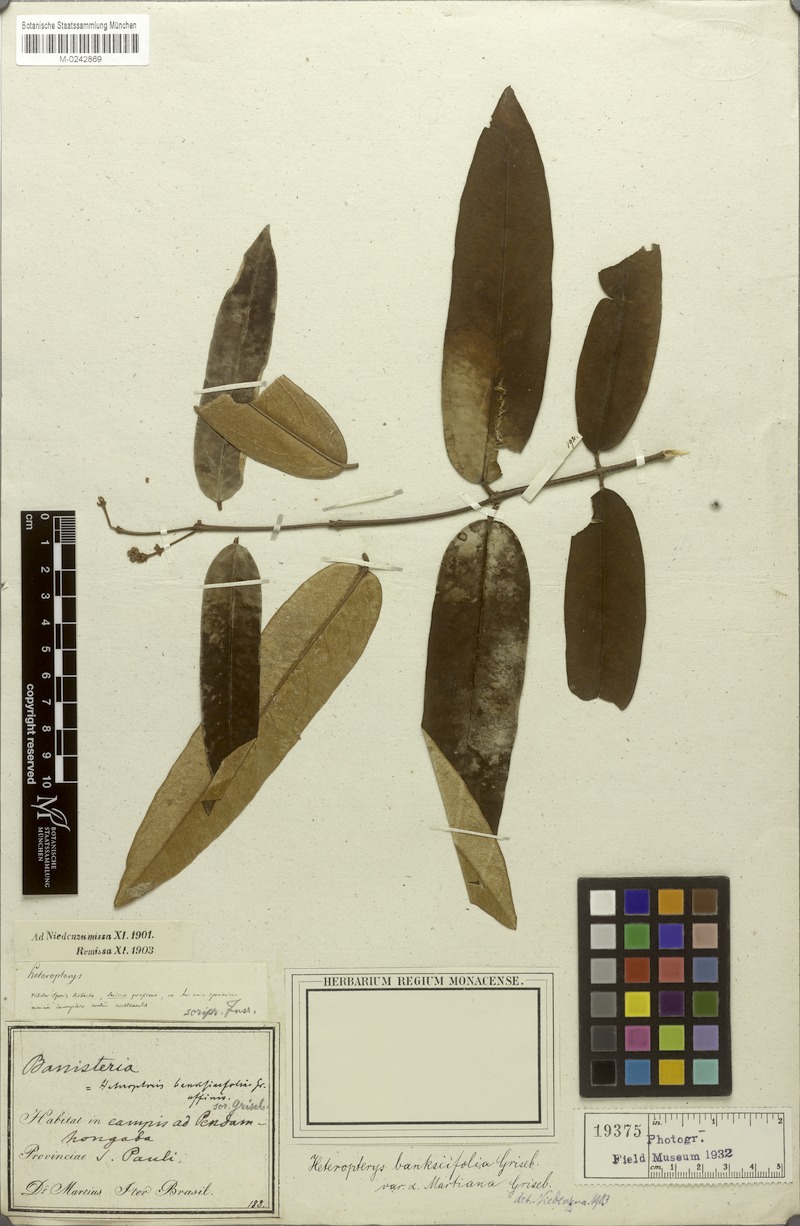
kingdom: Plantae
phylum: Tracheophyta
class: Magnoliopsida
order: Malpighiales
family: Malpighiaceae
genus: Heteropterys
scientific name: Heteropterys banksiifolia
